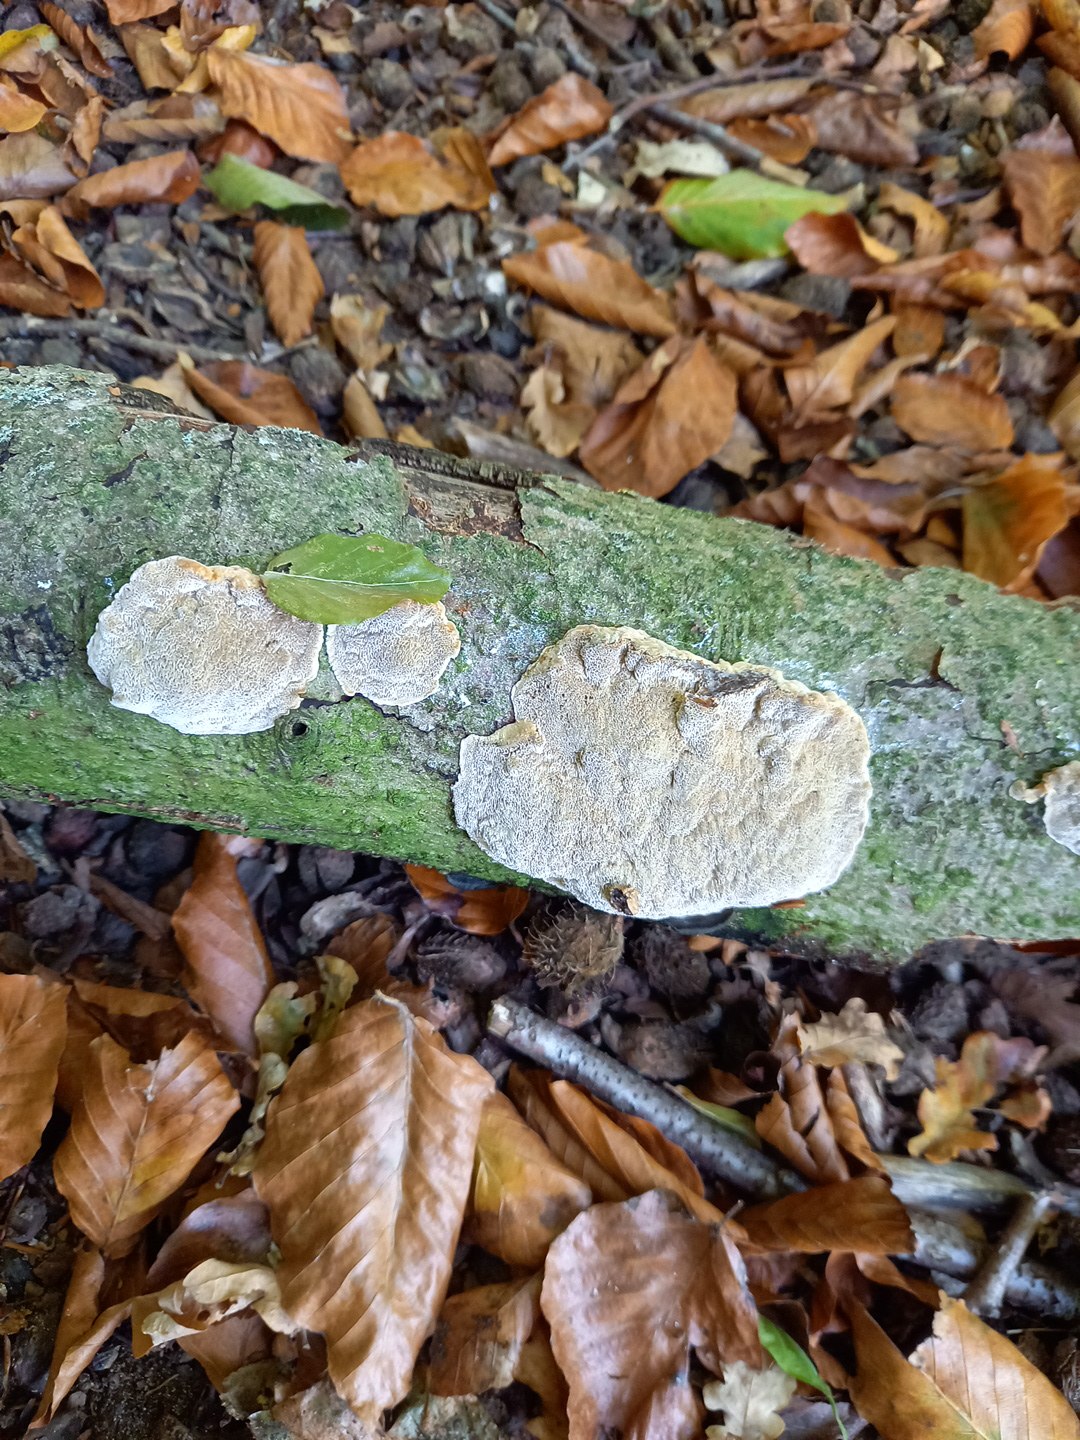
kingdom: Fungi
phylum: Basidiomycota
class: Agaricomycetes
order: Hymenochaetales
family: Hymenochaetaceae
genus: Mensularia
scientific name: Mensularia nodulosa
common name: bøge-spejlporesvamp
